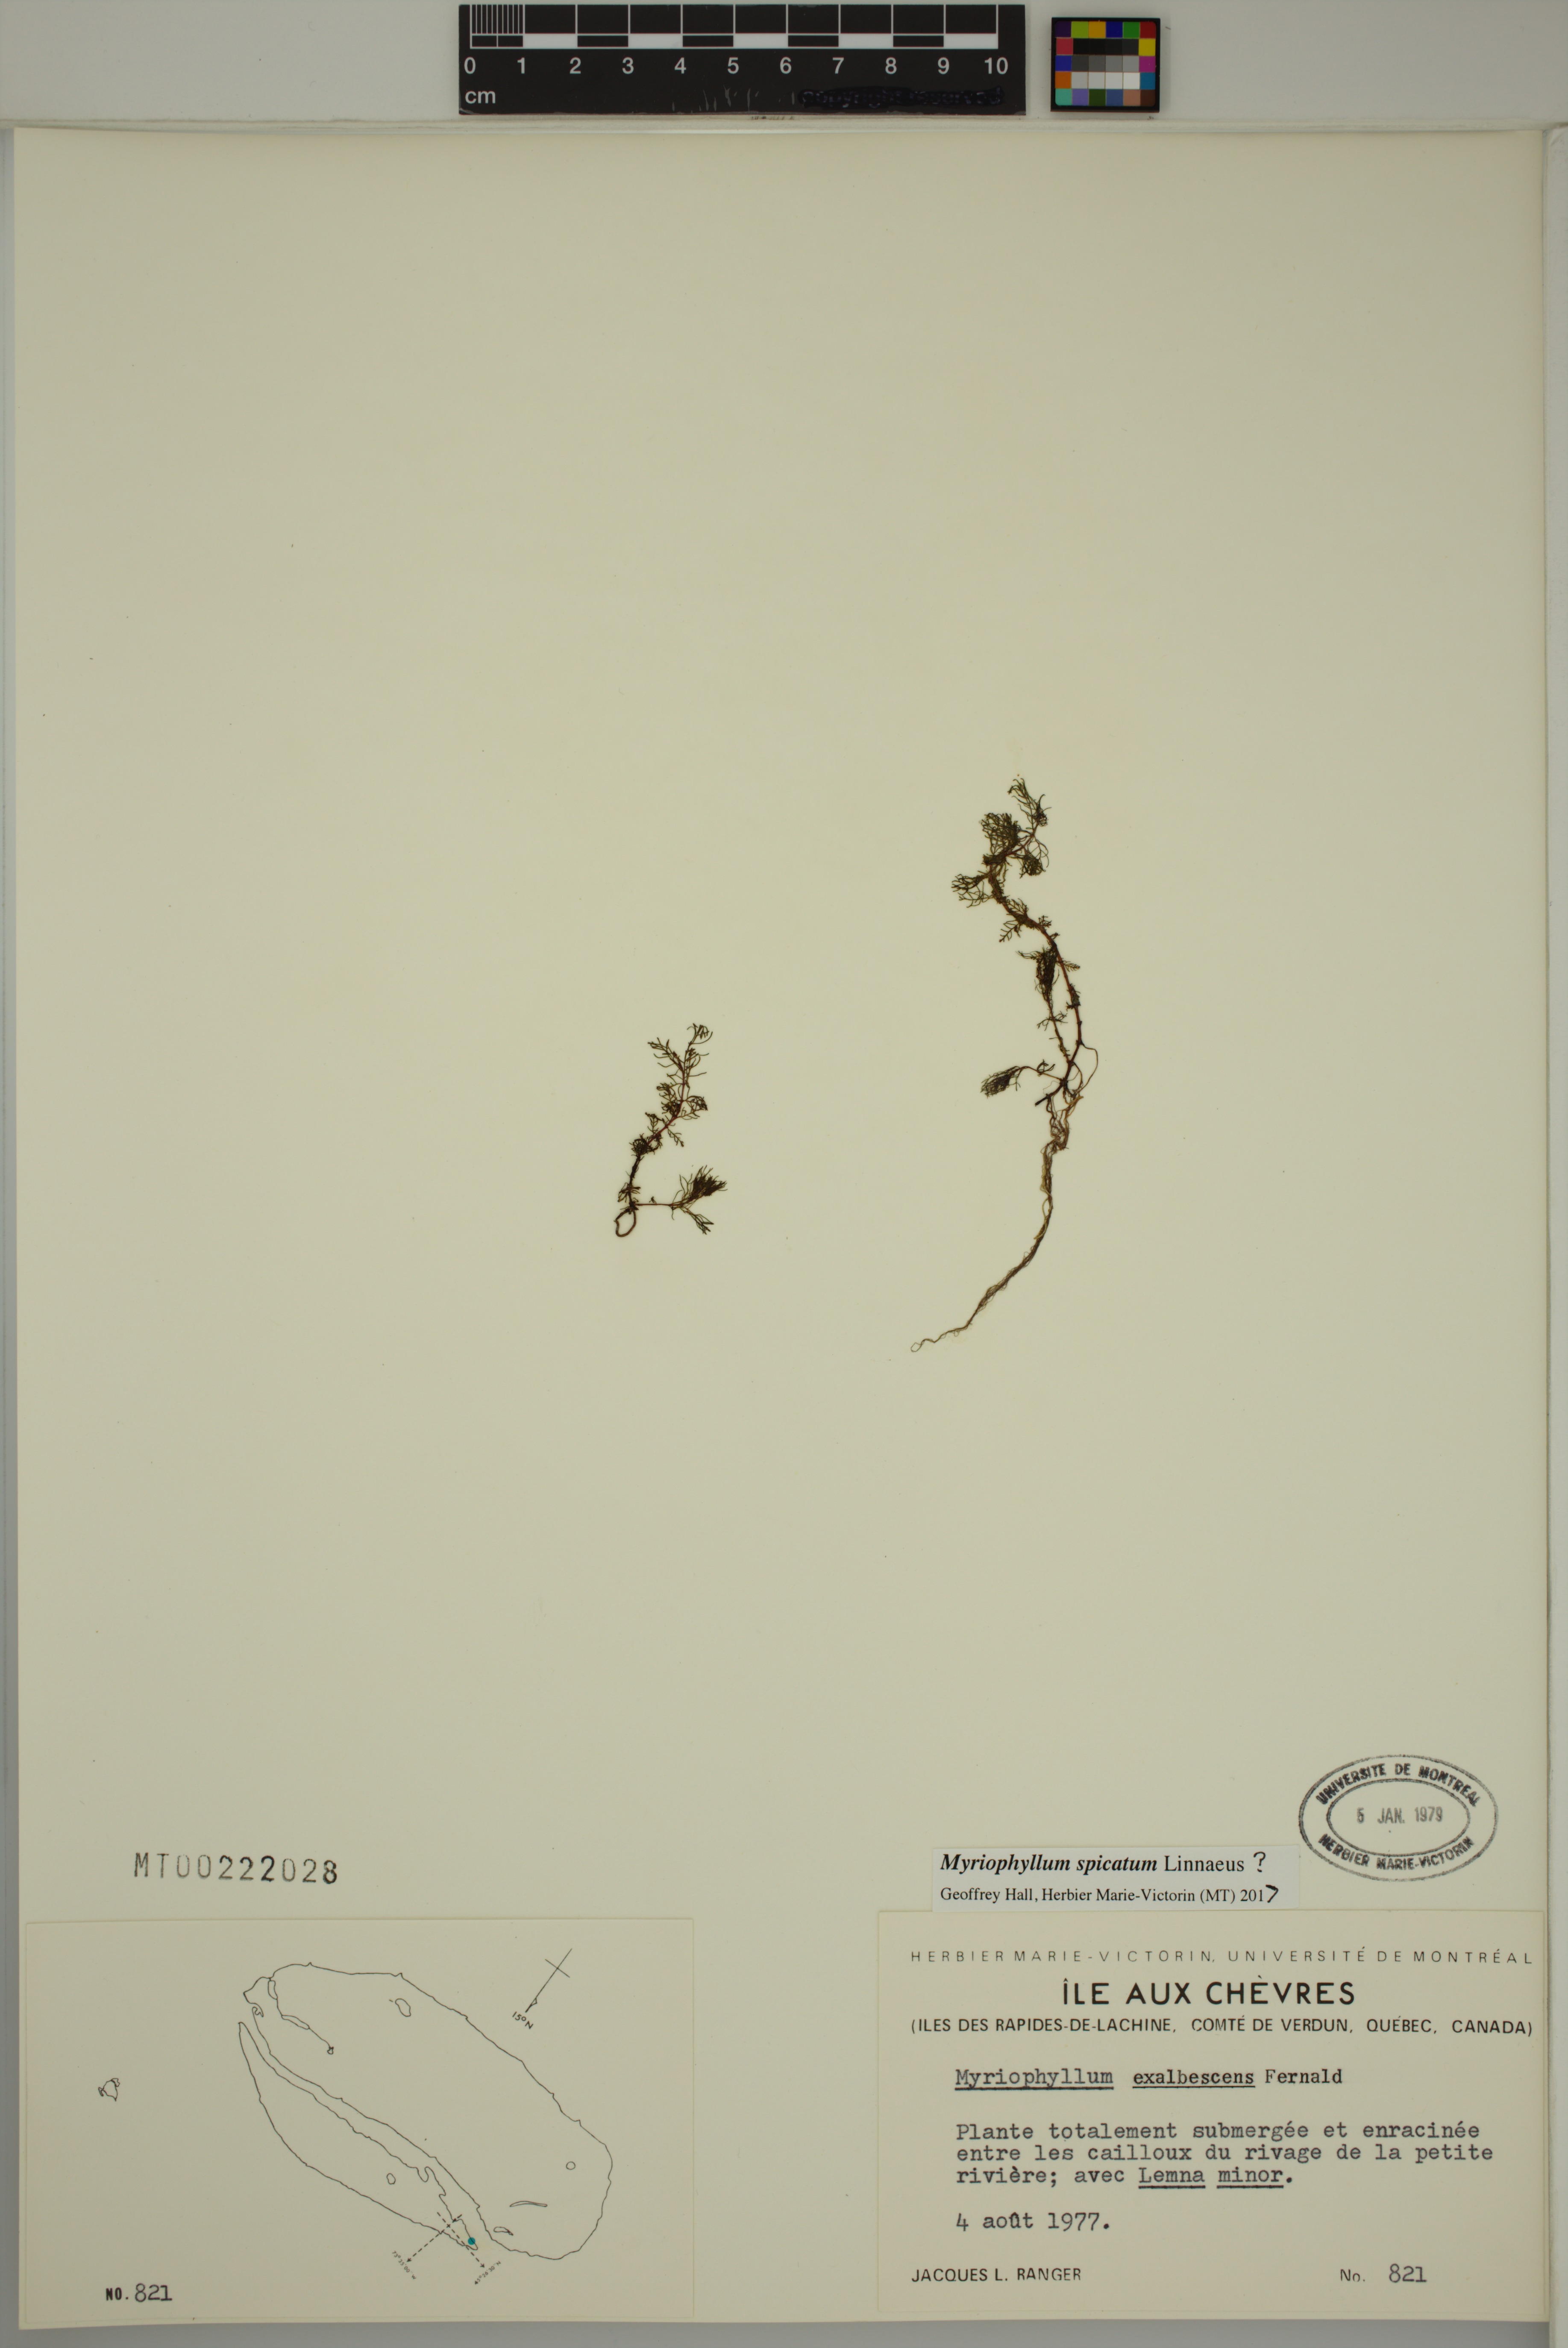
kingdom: Plantae
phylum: Tracheophyta
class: Magnoliopsida
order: Saxifragales
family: Haloragaceae
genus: Myriophyllum
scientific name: Myriophyllum spicatum
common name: Spiked water-milfoil
